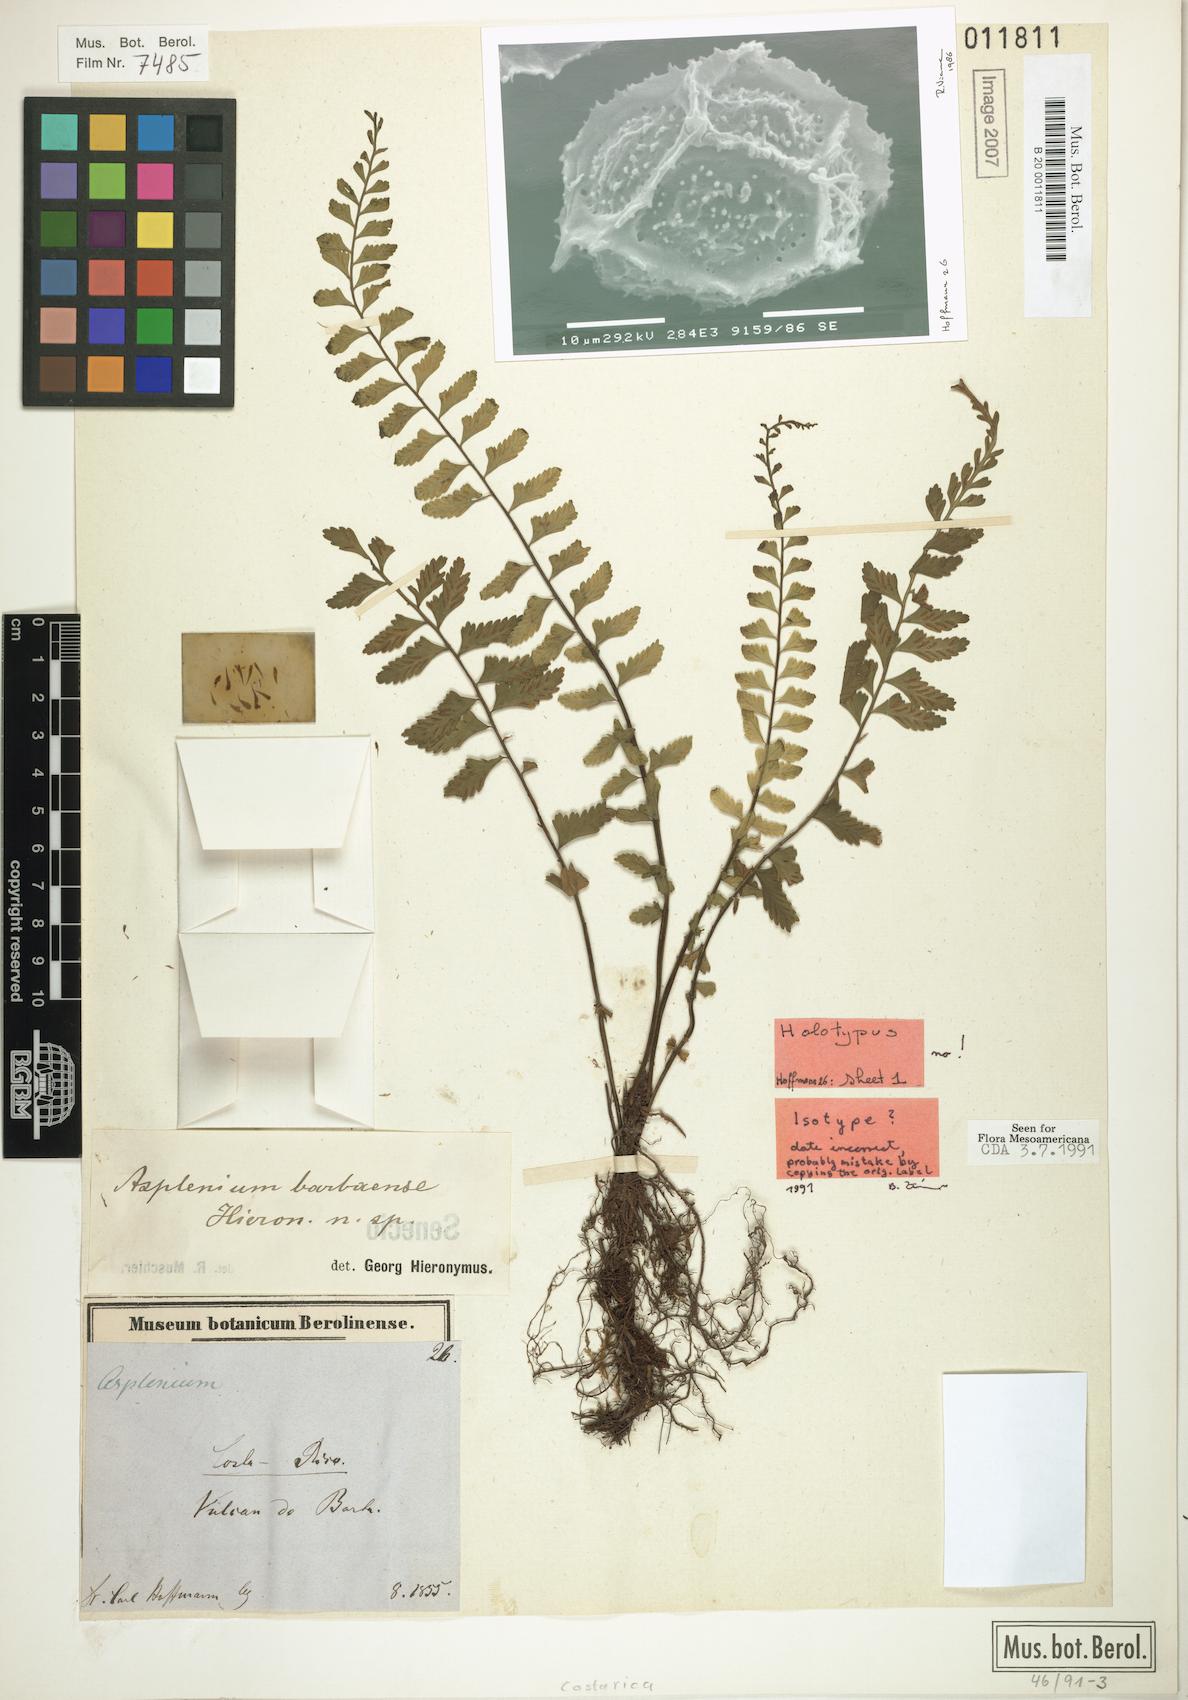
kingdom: Plantae
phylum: Tracheophyta
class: Polypodiopsida
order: Polypodiales
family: Aspleniaceae
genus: Asplenium
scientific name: Asplenium barbaense
